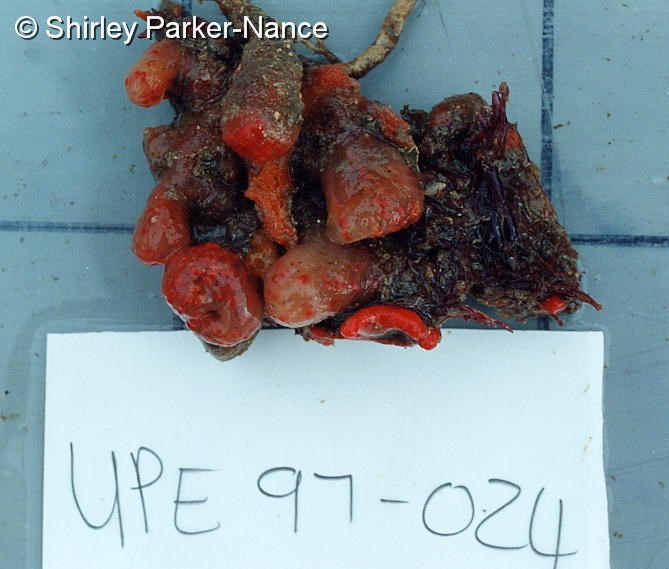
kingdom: Animalia
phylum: Chordata
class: Ascidiacea
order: Aplousobranchia
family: Pseudodistomidae
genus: Pseudodistoma
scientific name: Pseudodistoma
